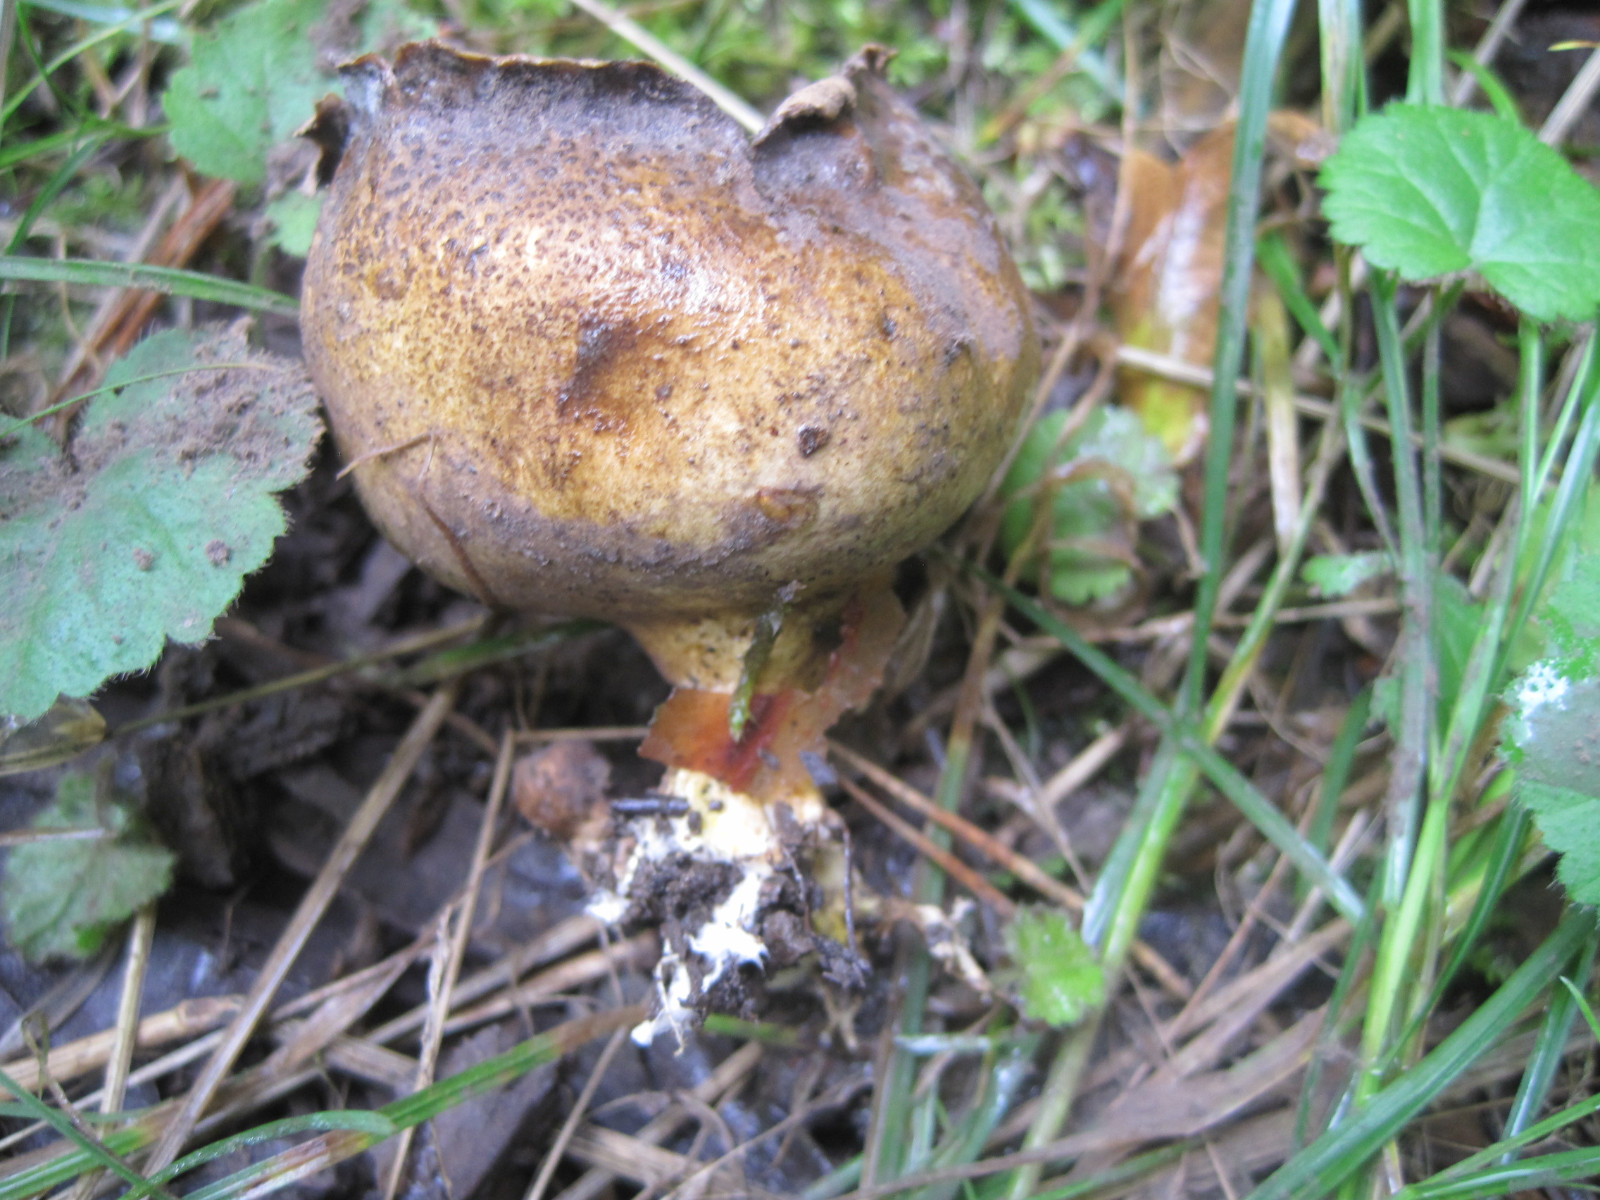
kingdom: Fungi
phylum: Basidiomycota
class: Agaricomycetes
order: Boletales
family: Sclerodermataceae
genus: Scleroderma
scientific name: Scleroderma verrucosum
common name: stilket bruskbold
